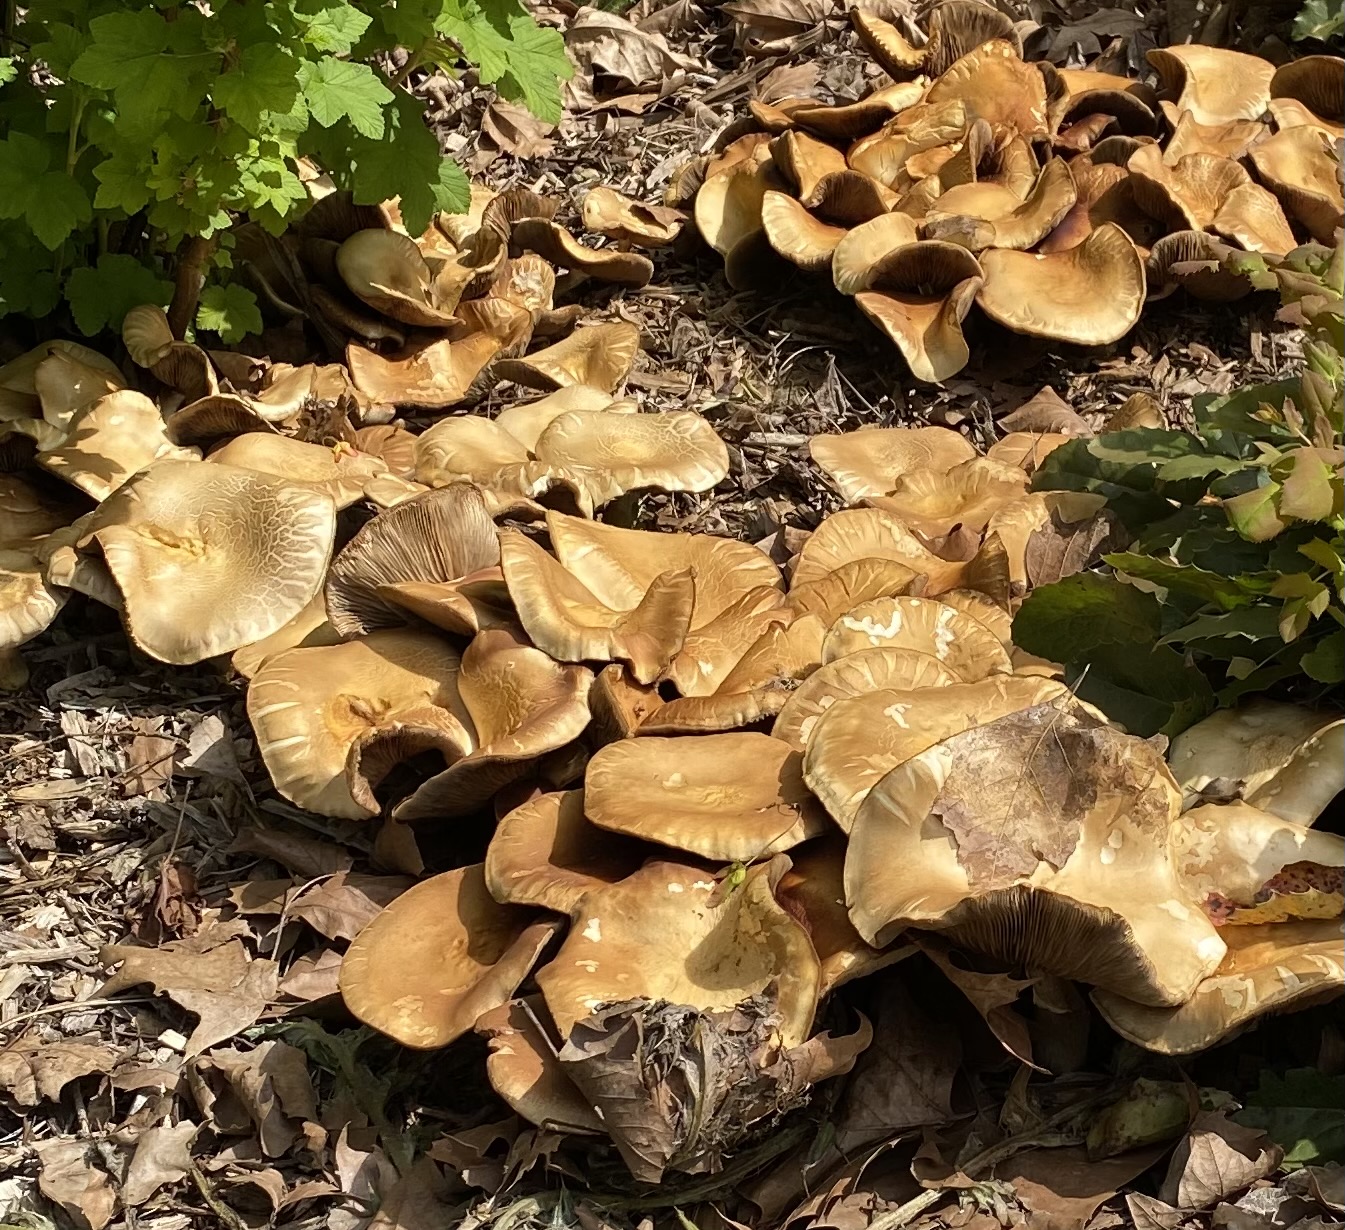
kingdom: Fungi
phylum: Basidiomycota
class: Agaricomycetes
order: Agaricales
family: Strophariaceae
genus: Agrocybe
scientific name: Agrocybe
